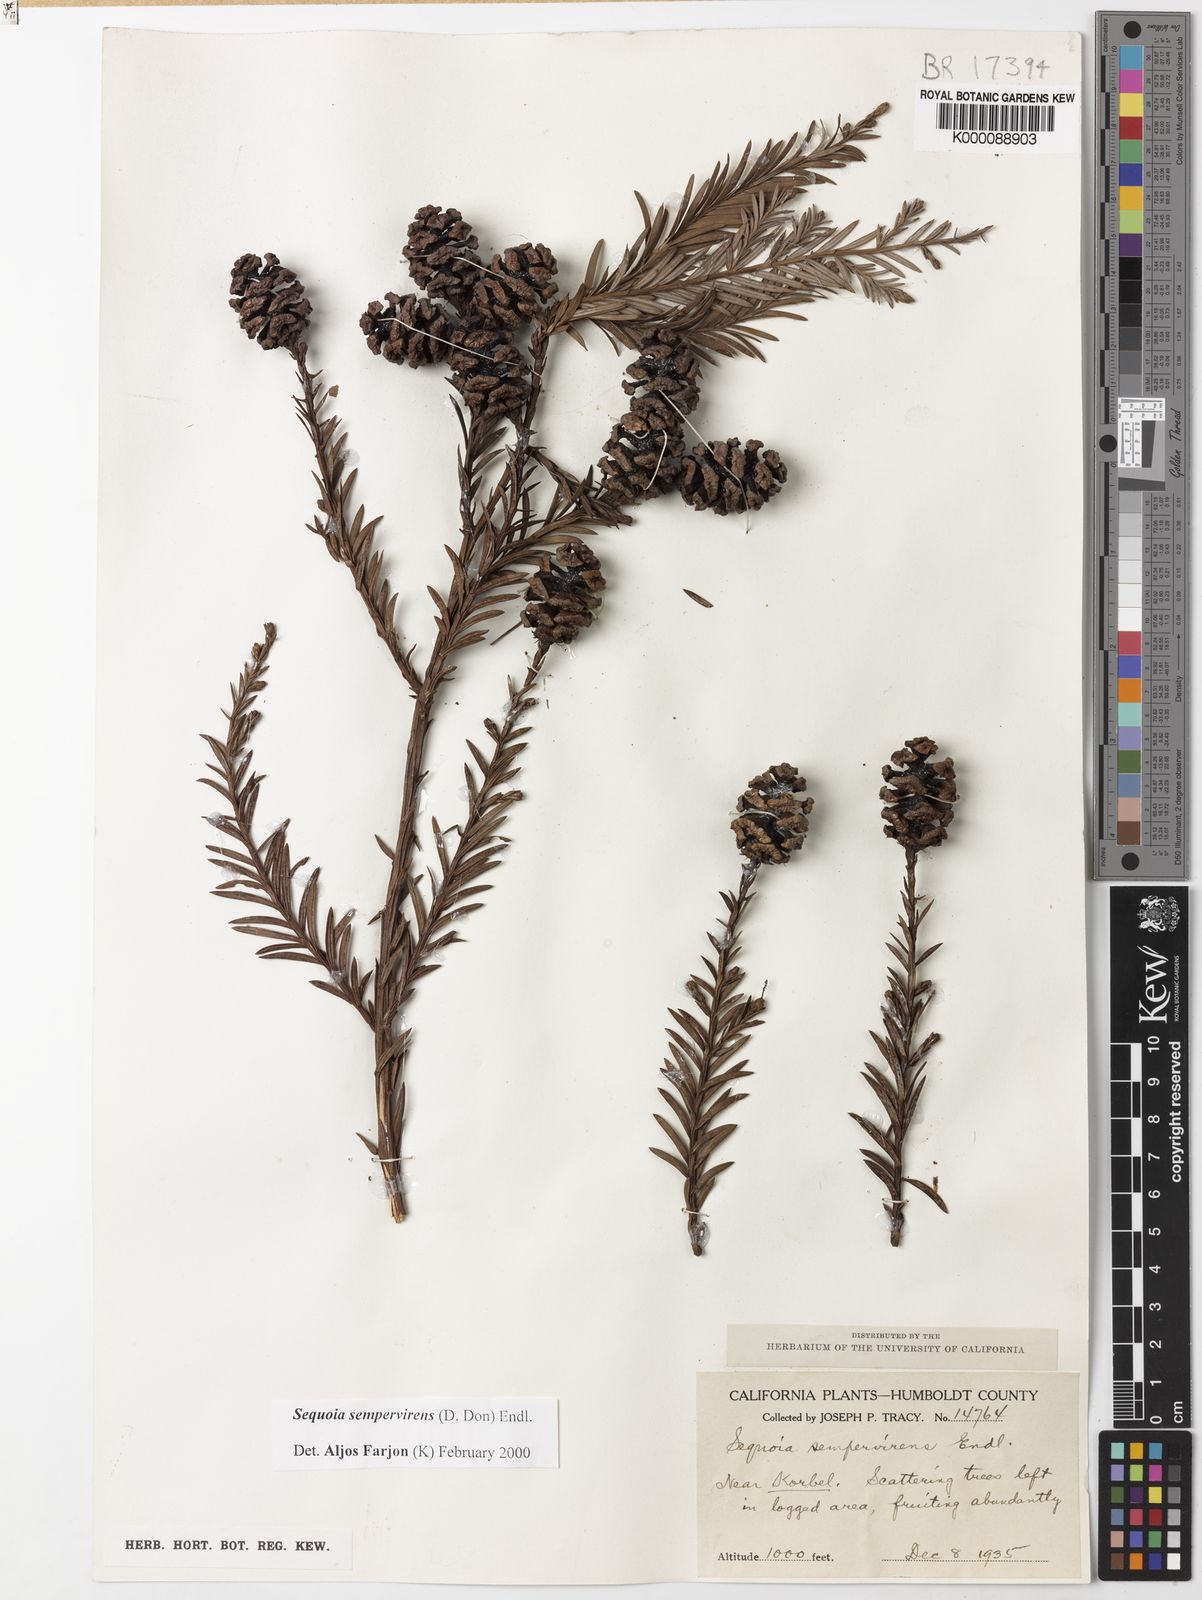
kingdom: Plantae
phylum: Tracheophyta
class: Pinopsida
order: Pinales
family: Cupressaceae
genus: Sequoia
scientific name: Sequoia sempervirens
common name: Coast redwood
